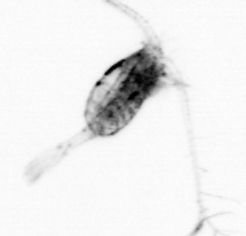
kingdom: Animalia
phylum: Arthropoda
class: Copepoda
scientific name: Copepoda
